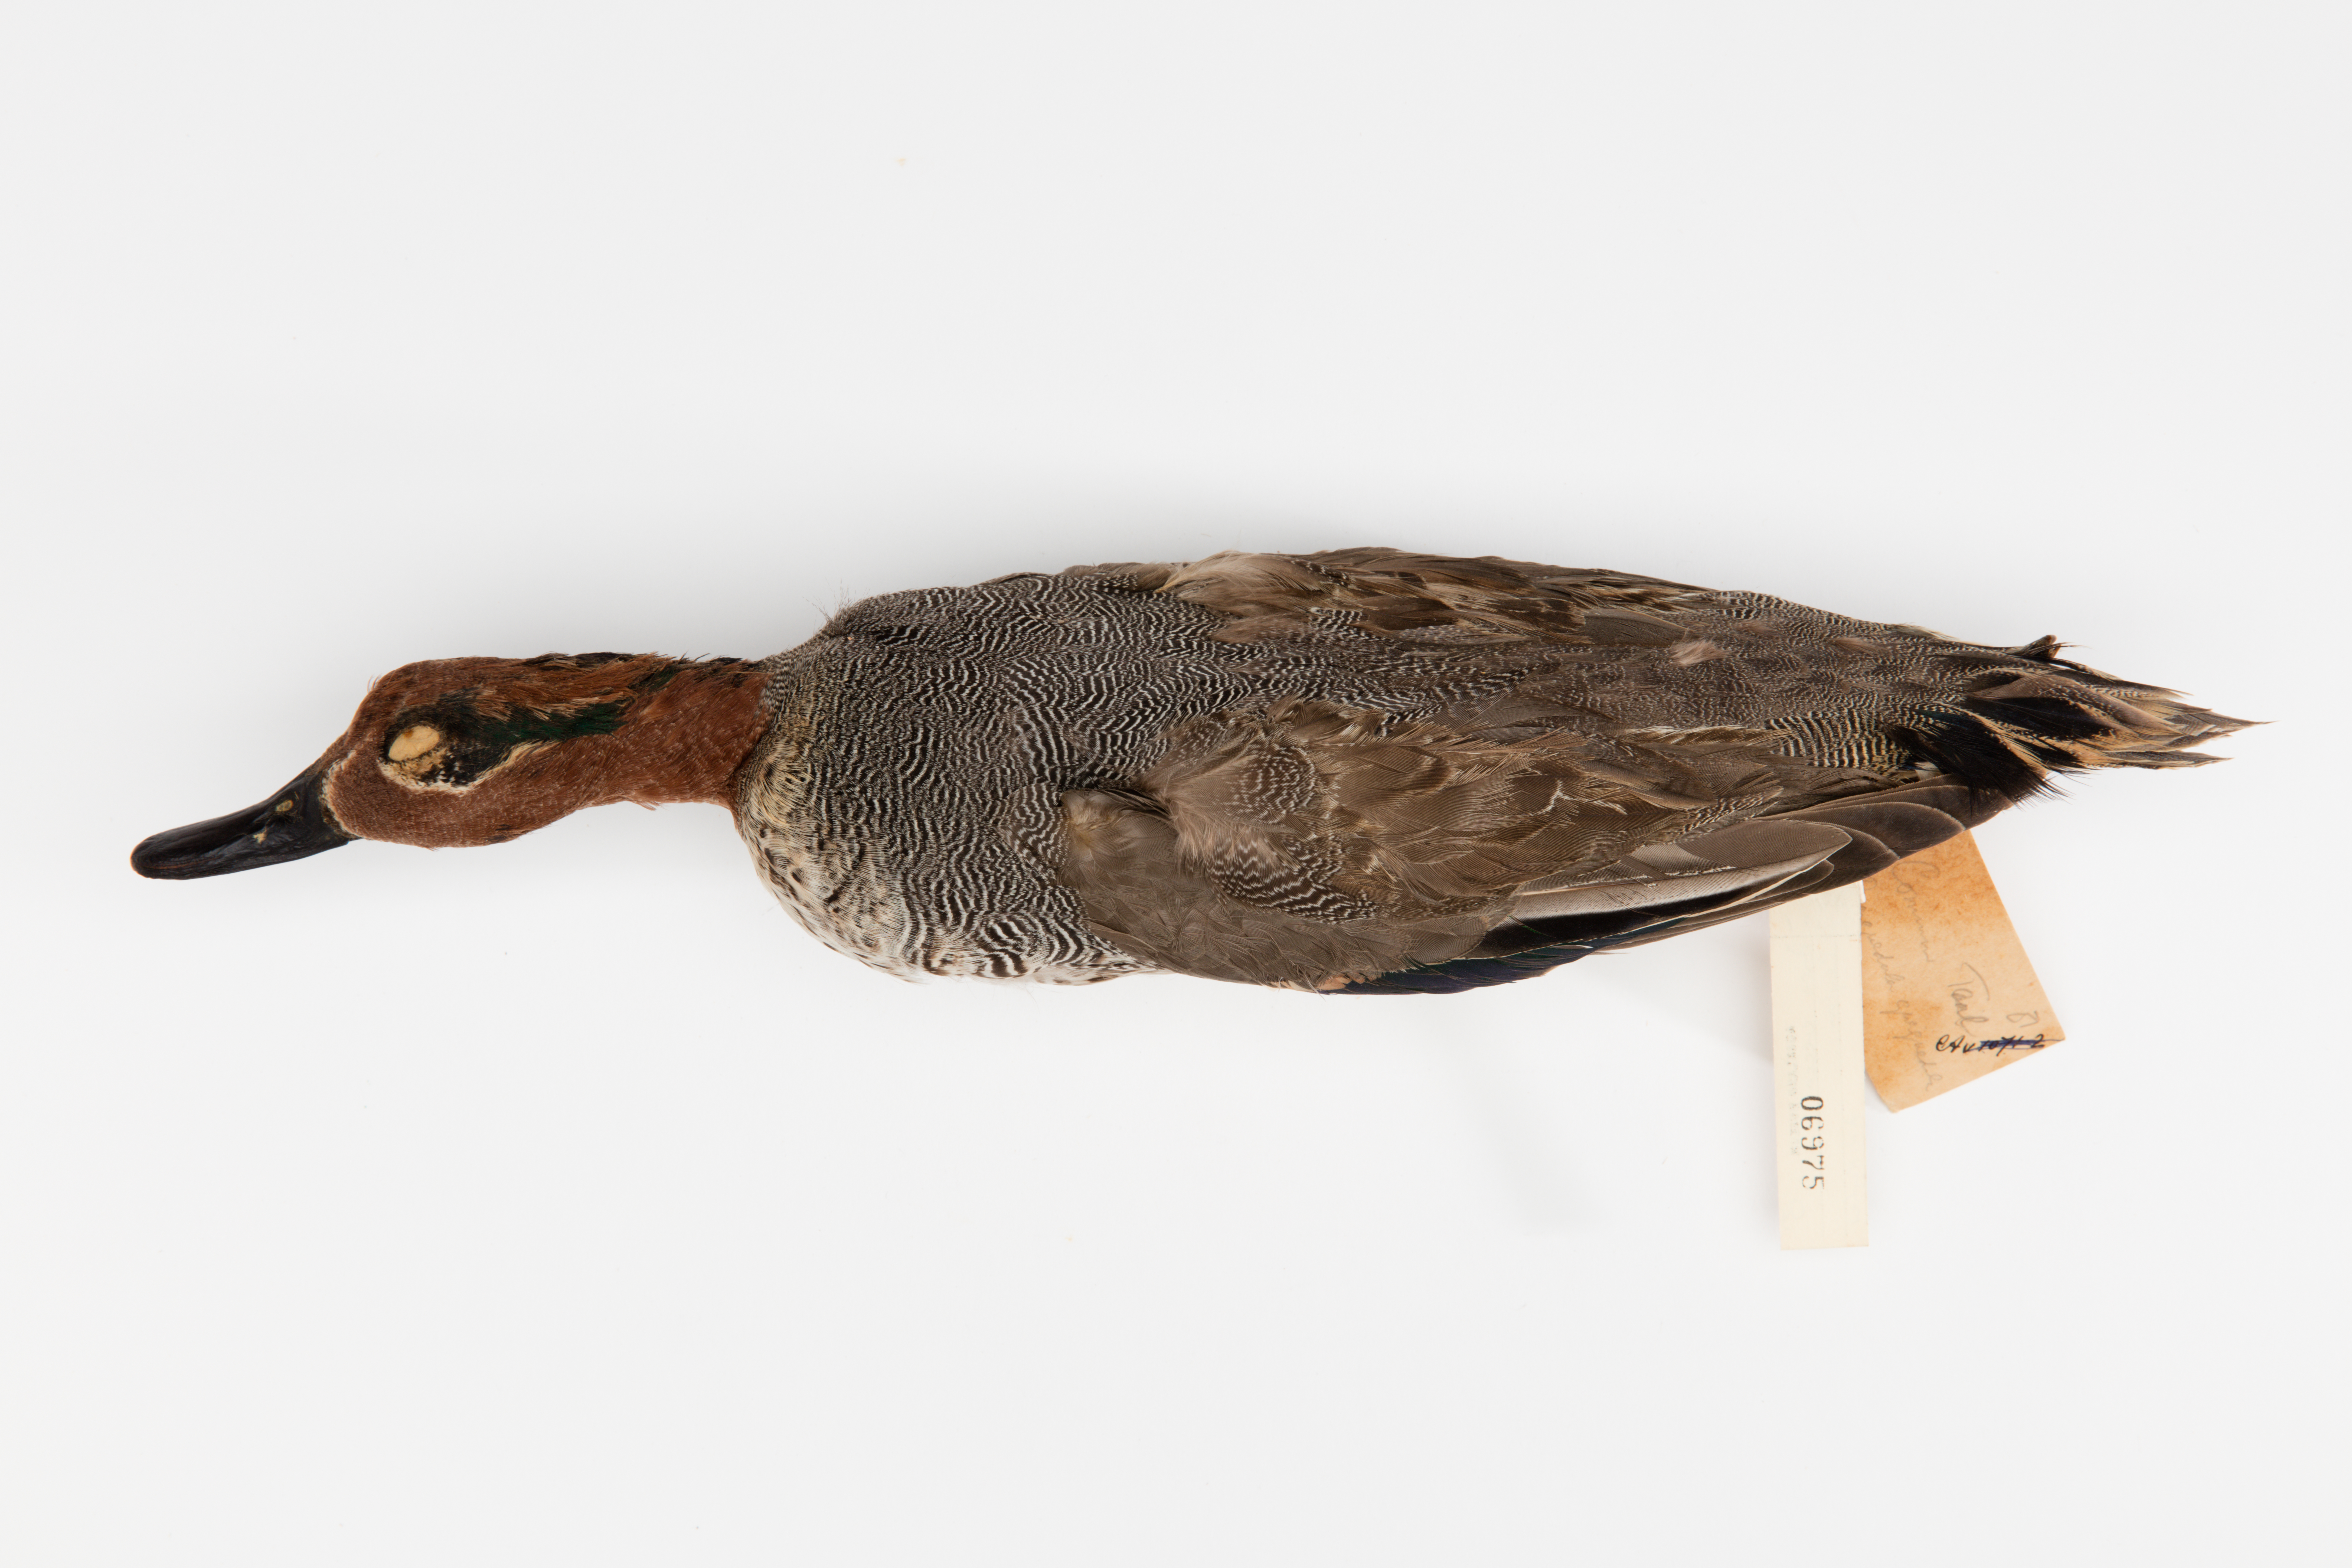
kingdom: Animalia
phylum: Chordata
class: Aves
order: Anseriformes
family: Anatidae
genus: Anas
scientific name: Anas crecca
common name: Eurasian teal
